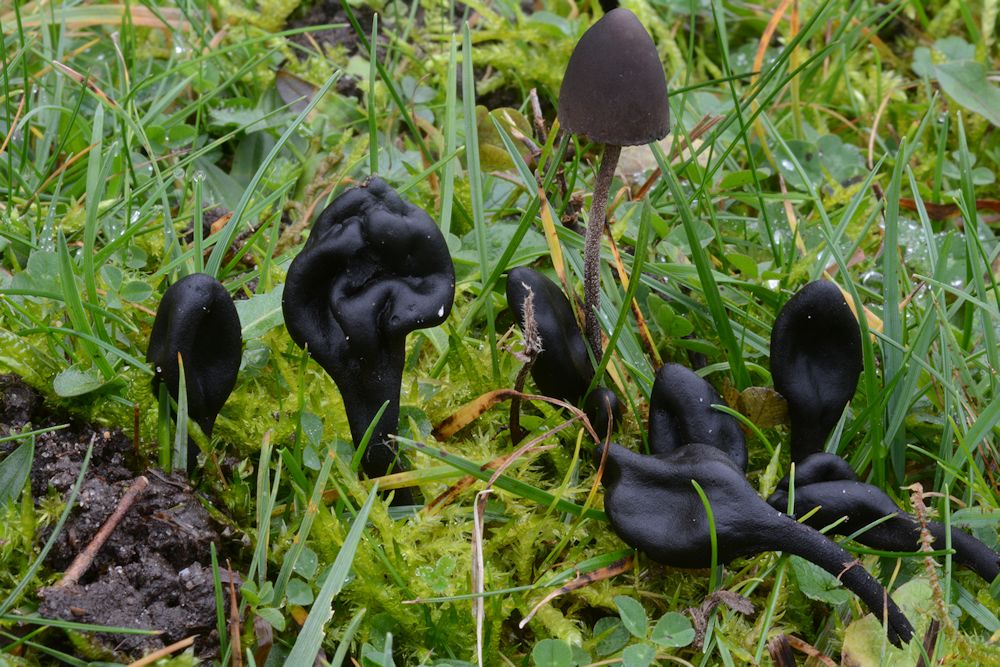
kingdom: Fungi
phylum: Ascomycota
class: Geoglossomycetes
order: Geoglossales
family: Geoglossaceae
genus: Trichoglossum
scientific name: Trichoglossum hirsutum
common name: håret jordtunge
